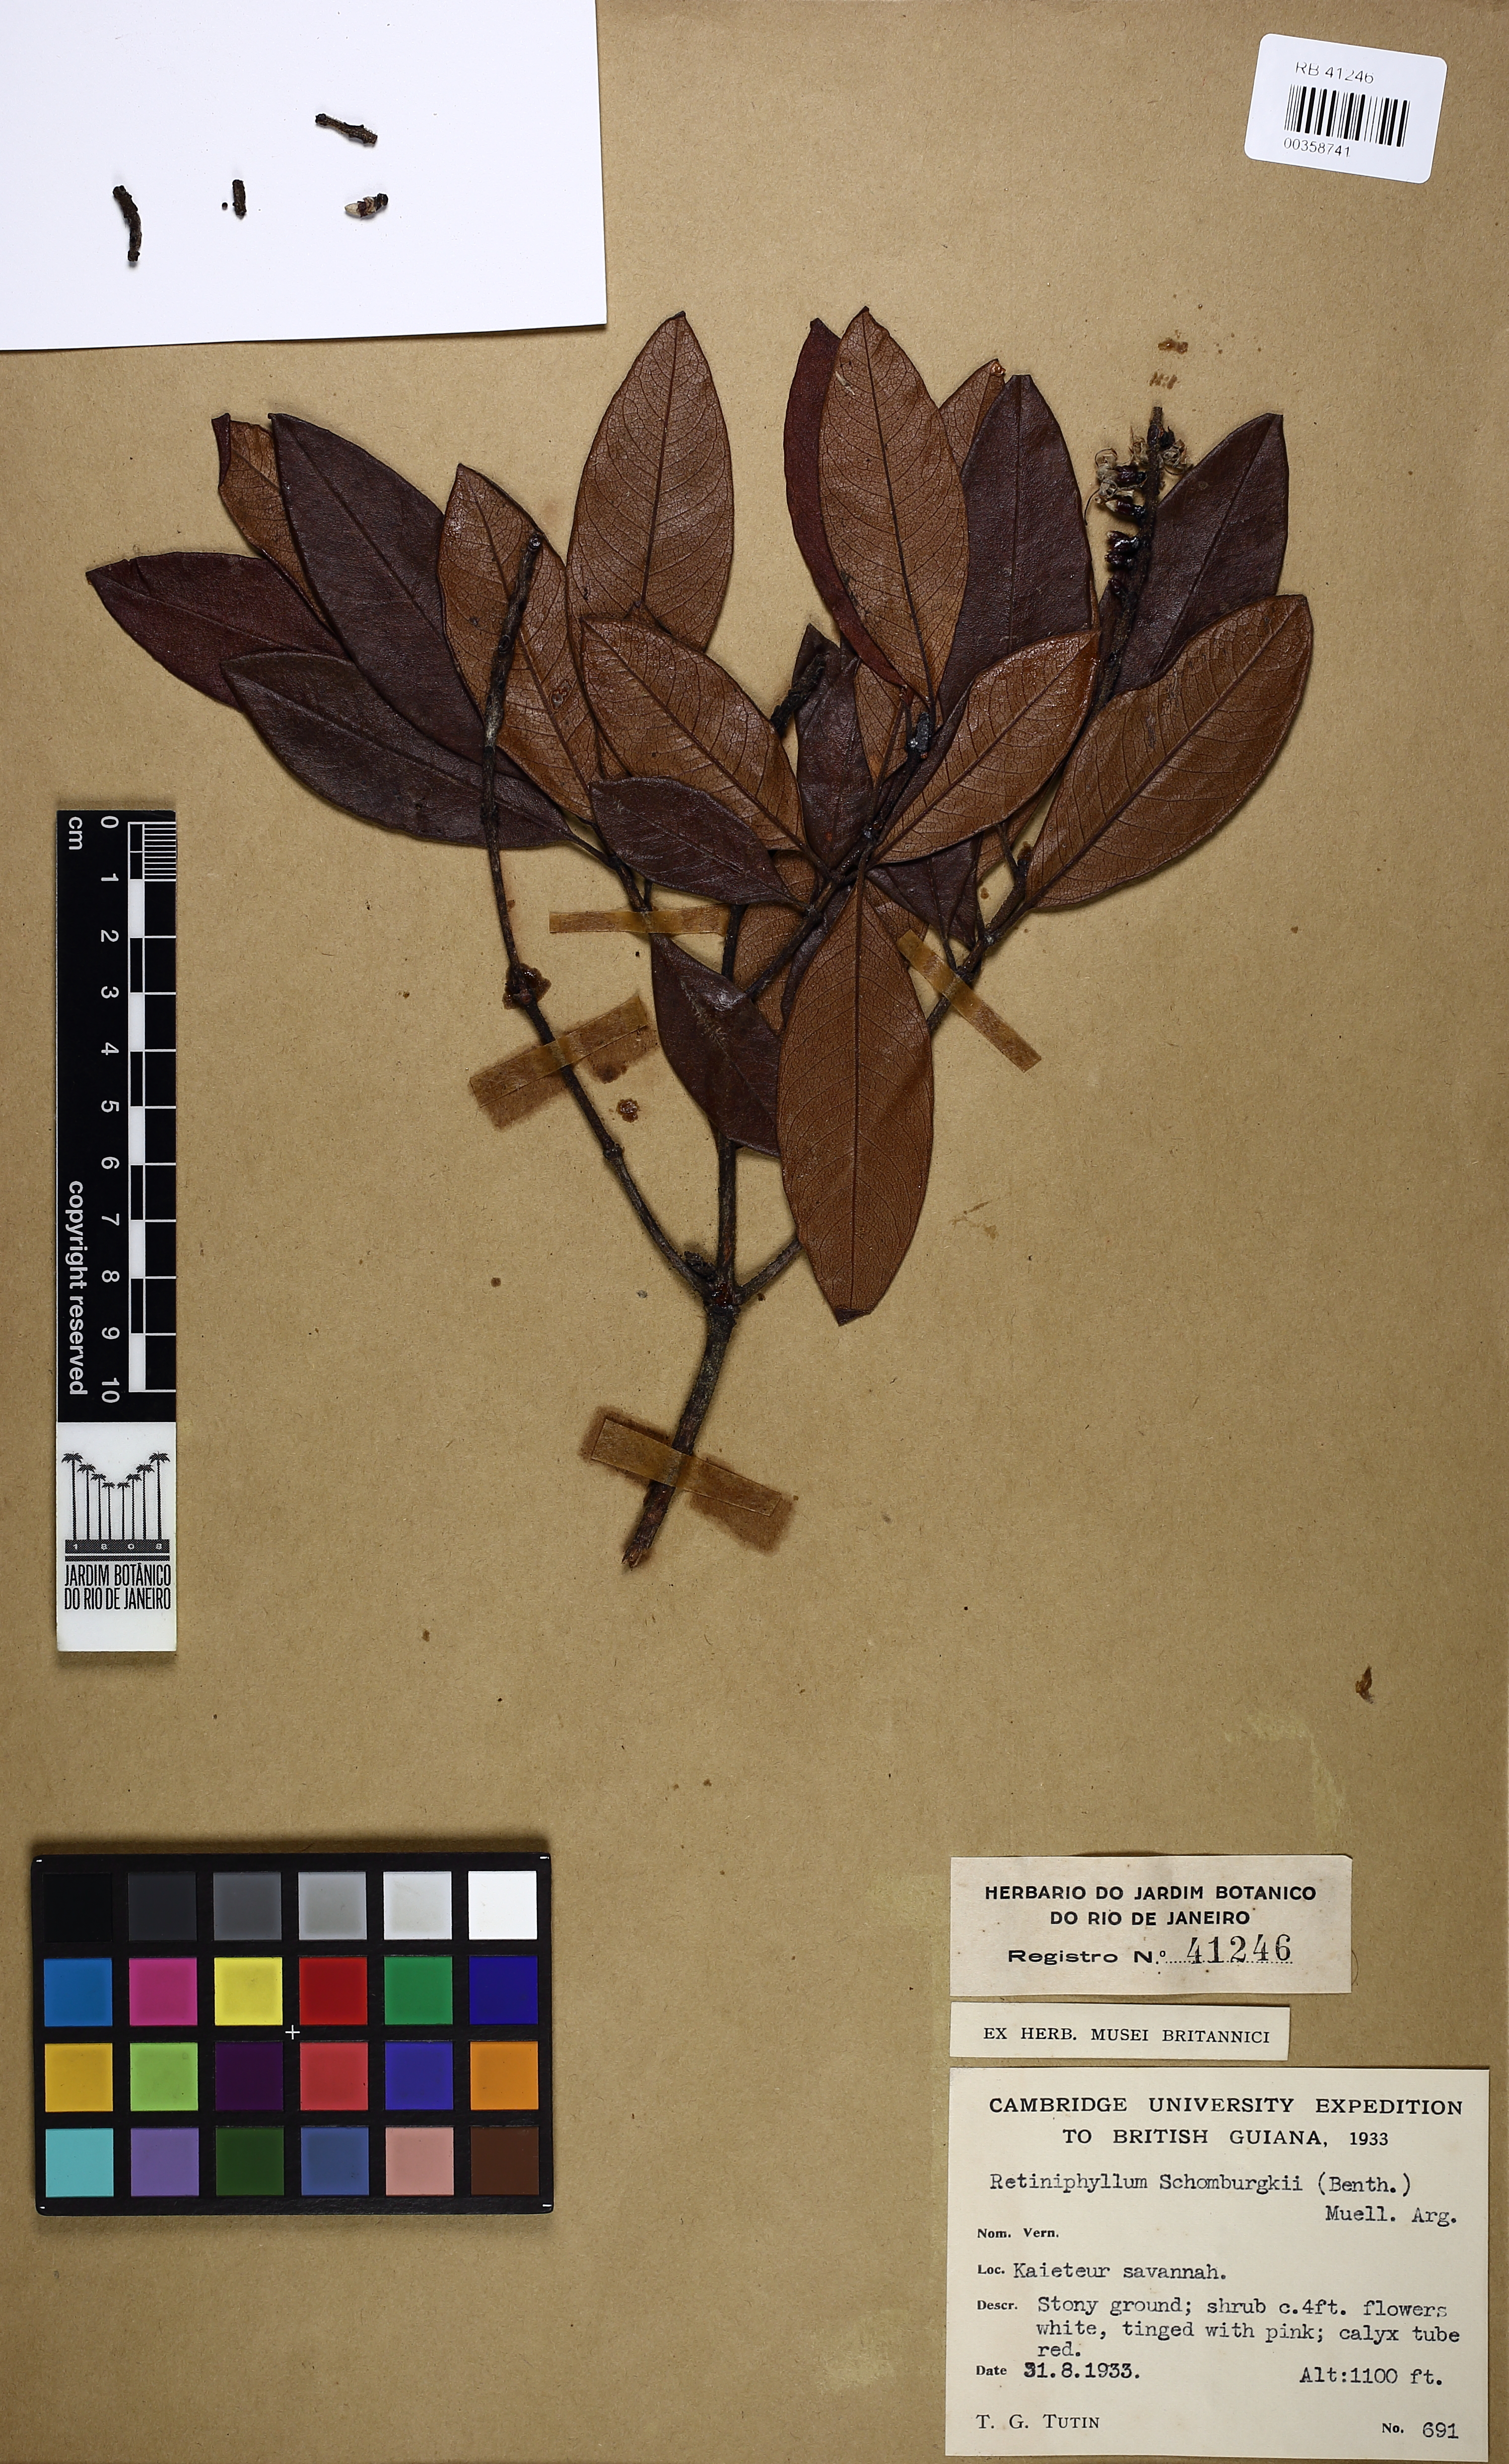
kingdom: Plantae
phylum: Tracheophyta
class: Magnoliopsida
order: Gentianales
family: Rubiaceae
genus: Retiniphyllum
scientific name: Retiniphyllum schomburgkii
